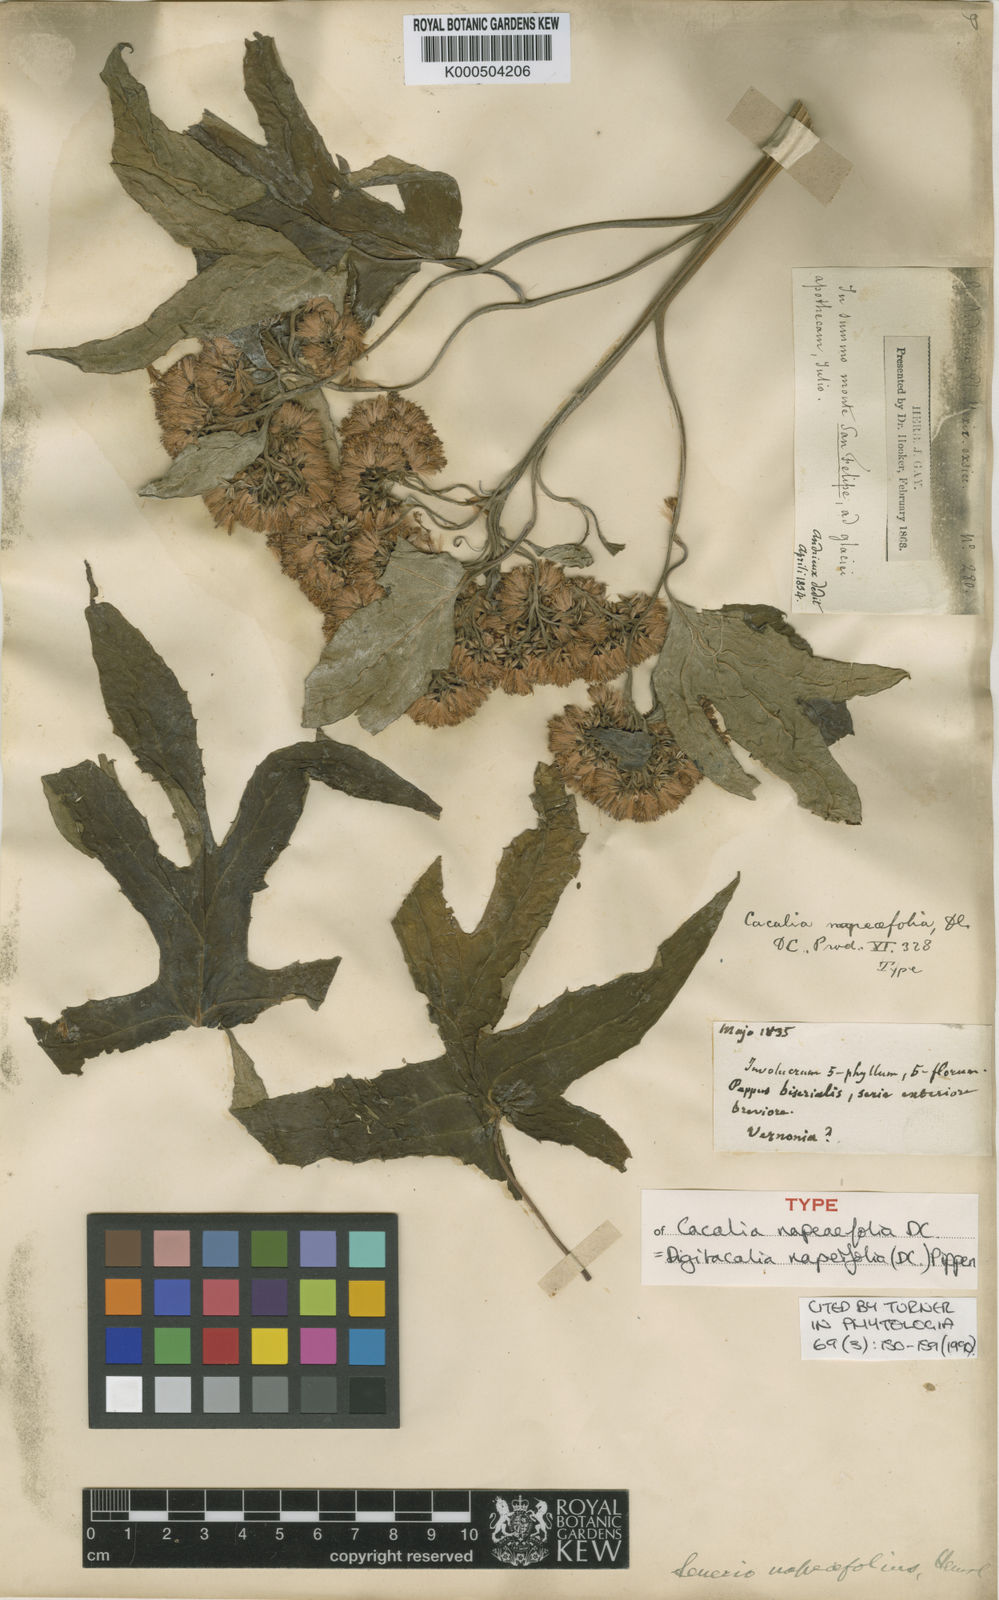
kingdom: Plantae
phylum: Tracheophyta
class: Magnoliopsida
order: Asterales
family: Asteraceae
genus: Digitacalia
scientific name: Digitacalia napeifolia
